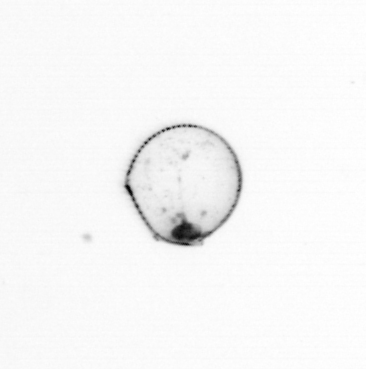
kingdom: Chromista
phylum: Myzozoa
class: Dinophyceae
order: Noctilucales
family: Noctilucaceae
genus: Noctiluca
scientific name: Noctiluca scintillans
